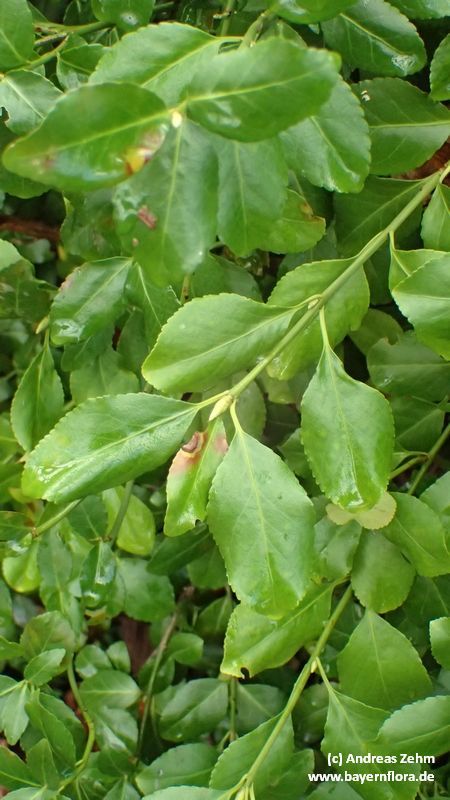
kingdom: Plantae
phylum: Tracheophyta
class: Magnoliopsida
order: Celastrales
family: Celastraceae
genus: Euonymus
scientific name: Euonymus fortunei
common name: Climbing euonymus
